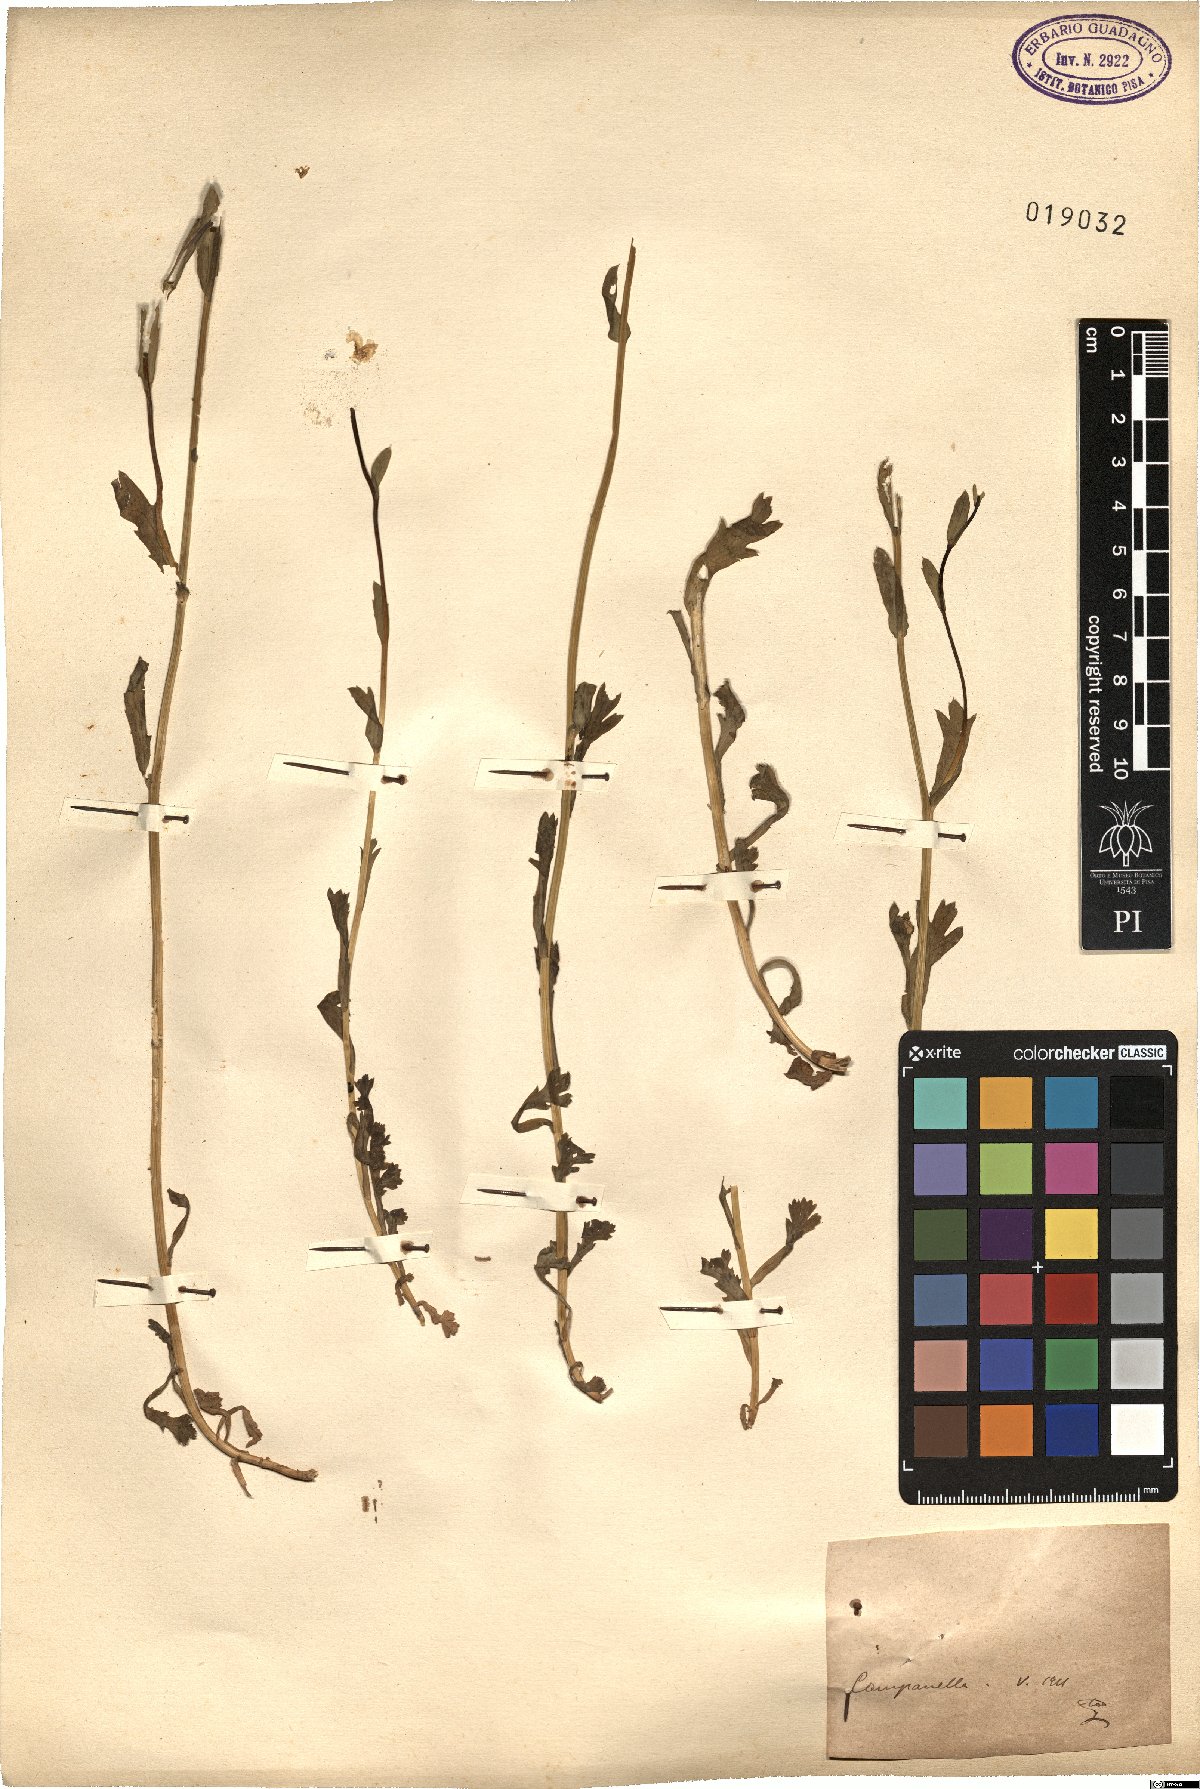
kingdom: Plantae
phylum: Tracheophyta
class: Magnoliopsida
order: Asterales
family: Asteraceae
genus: Pyrethrum
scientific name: Pyrethrum
